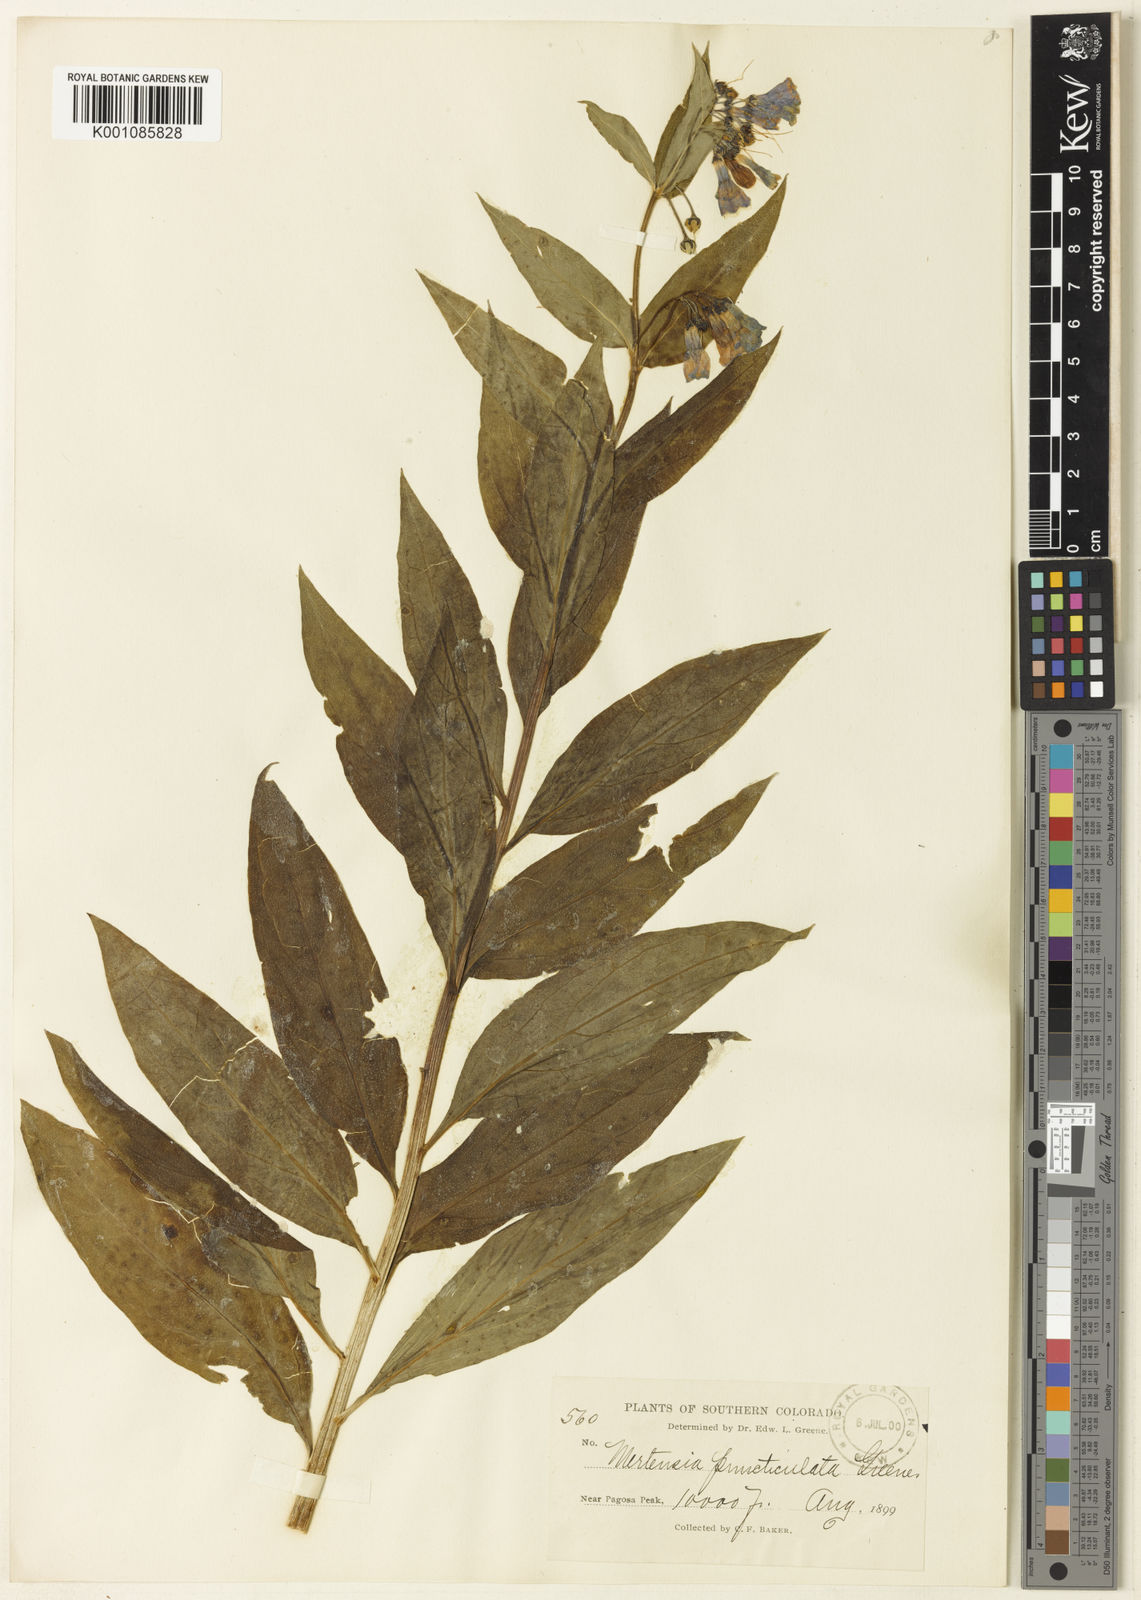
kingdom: Plantae
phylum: Tracheophyta
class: Magnoliopsida
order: Boraginales
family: Boraginaceae
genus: Mertensia
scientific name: Mertensia ciliata
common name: Tall chiming-bells
